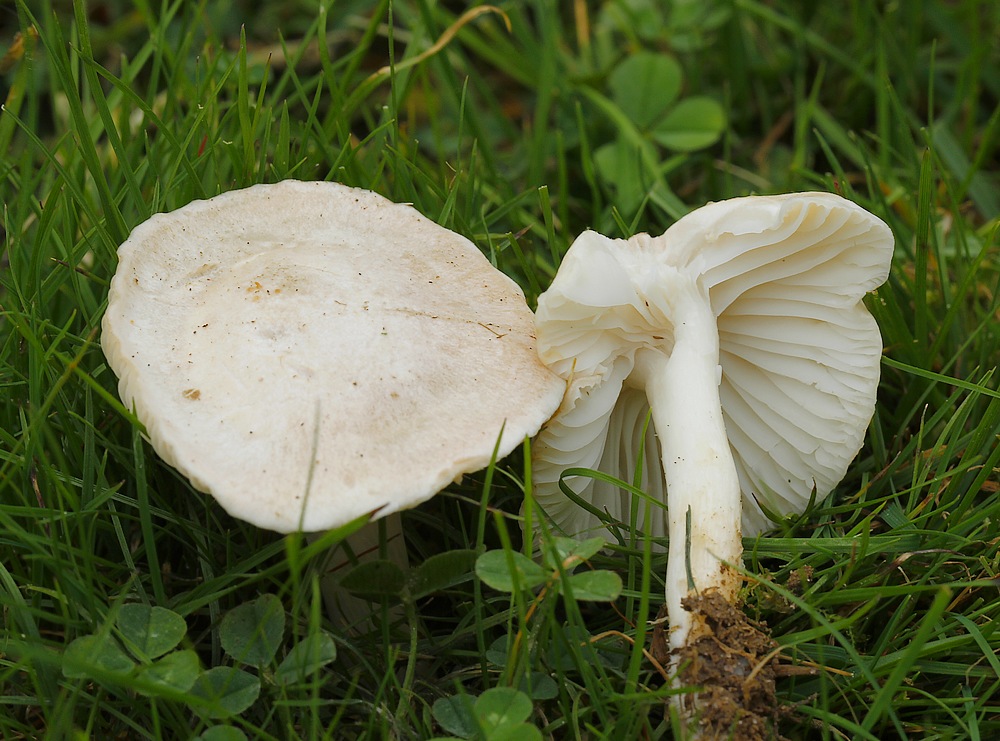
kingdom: Fungi
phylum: Basidiomycota
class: Agaricomycetes
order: Agaricales
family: Hygrophoraceae
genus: Cuphophyllus
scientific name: Cuphophyllus pratensis
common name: bleg vokshat
